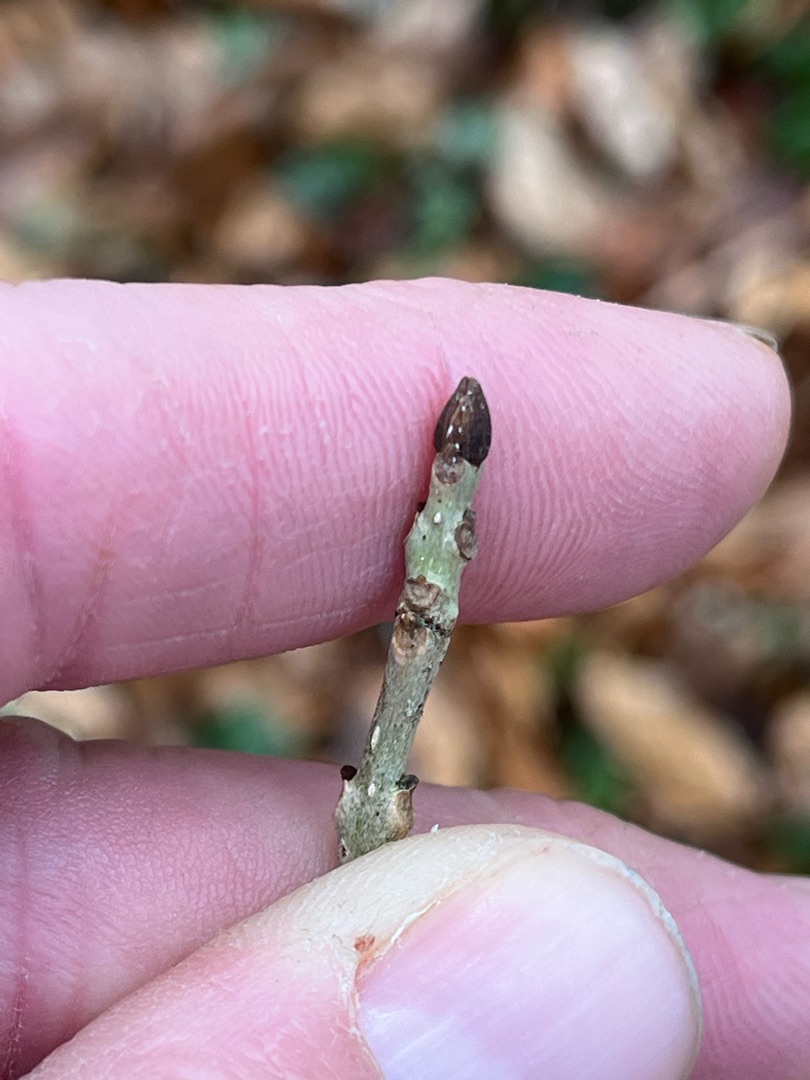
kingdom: Plantae
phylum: Tracheophyta
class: Magnoliopsida
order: Lamiales
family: Oleaceae
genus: Fraxinus
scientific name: Fraxinus excelsior
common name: Ask
